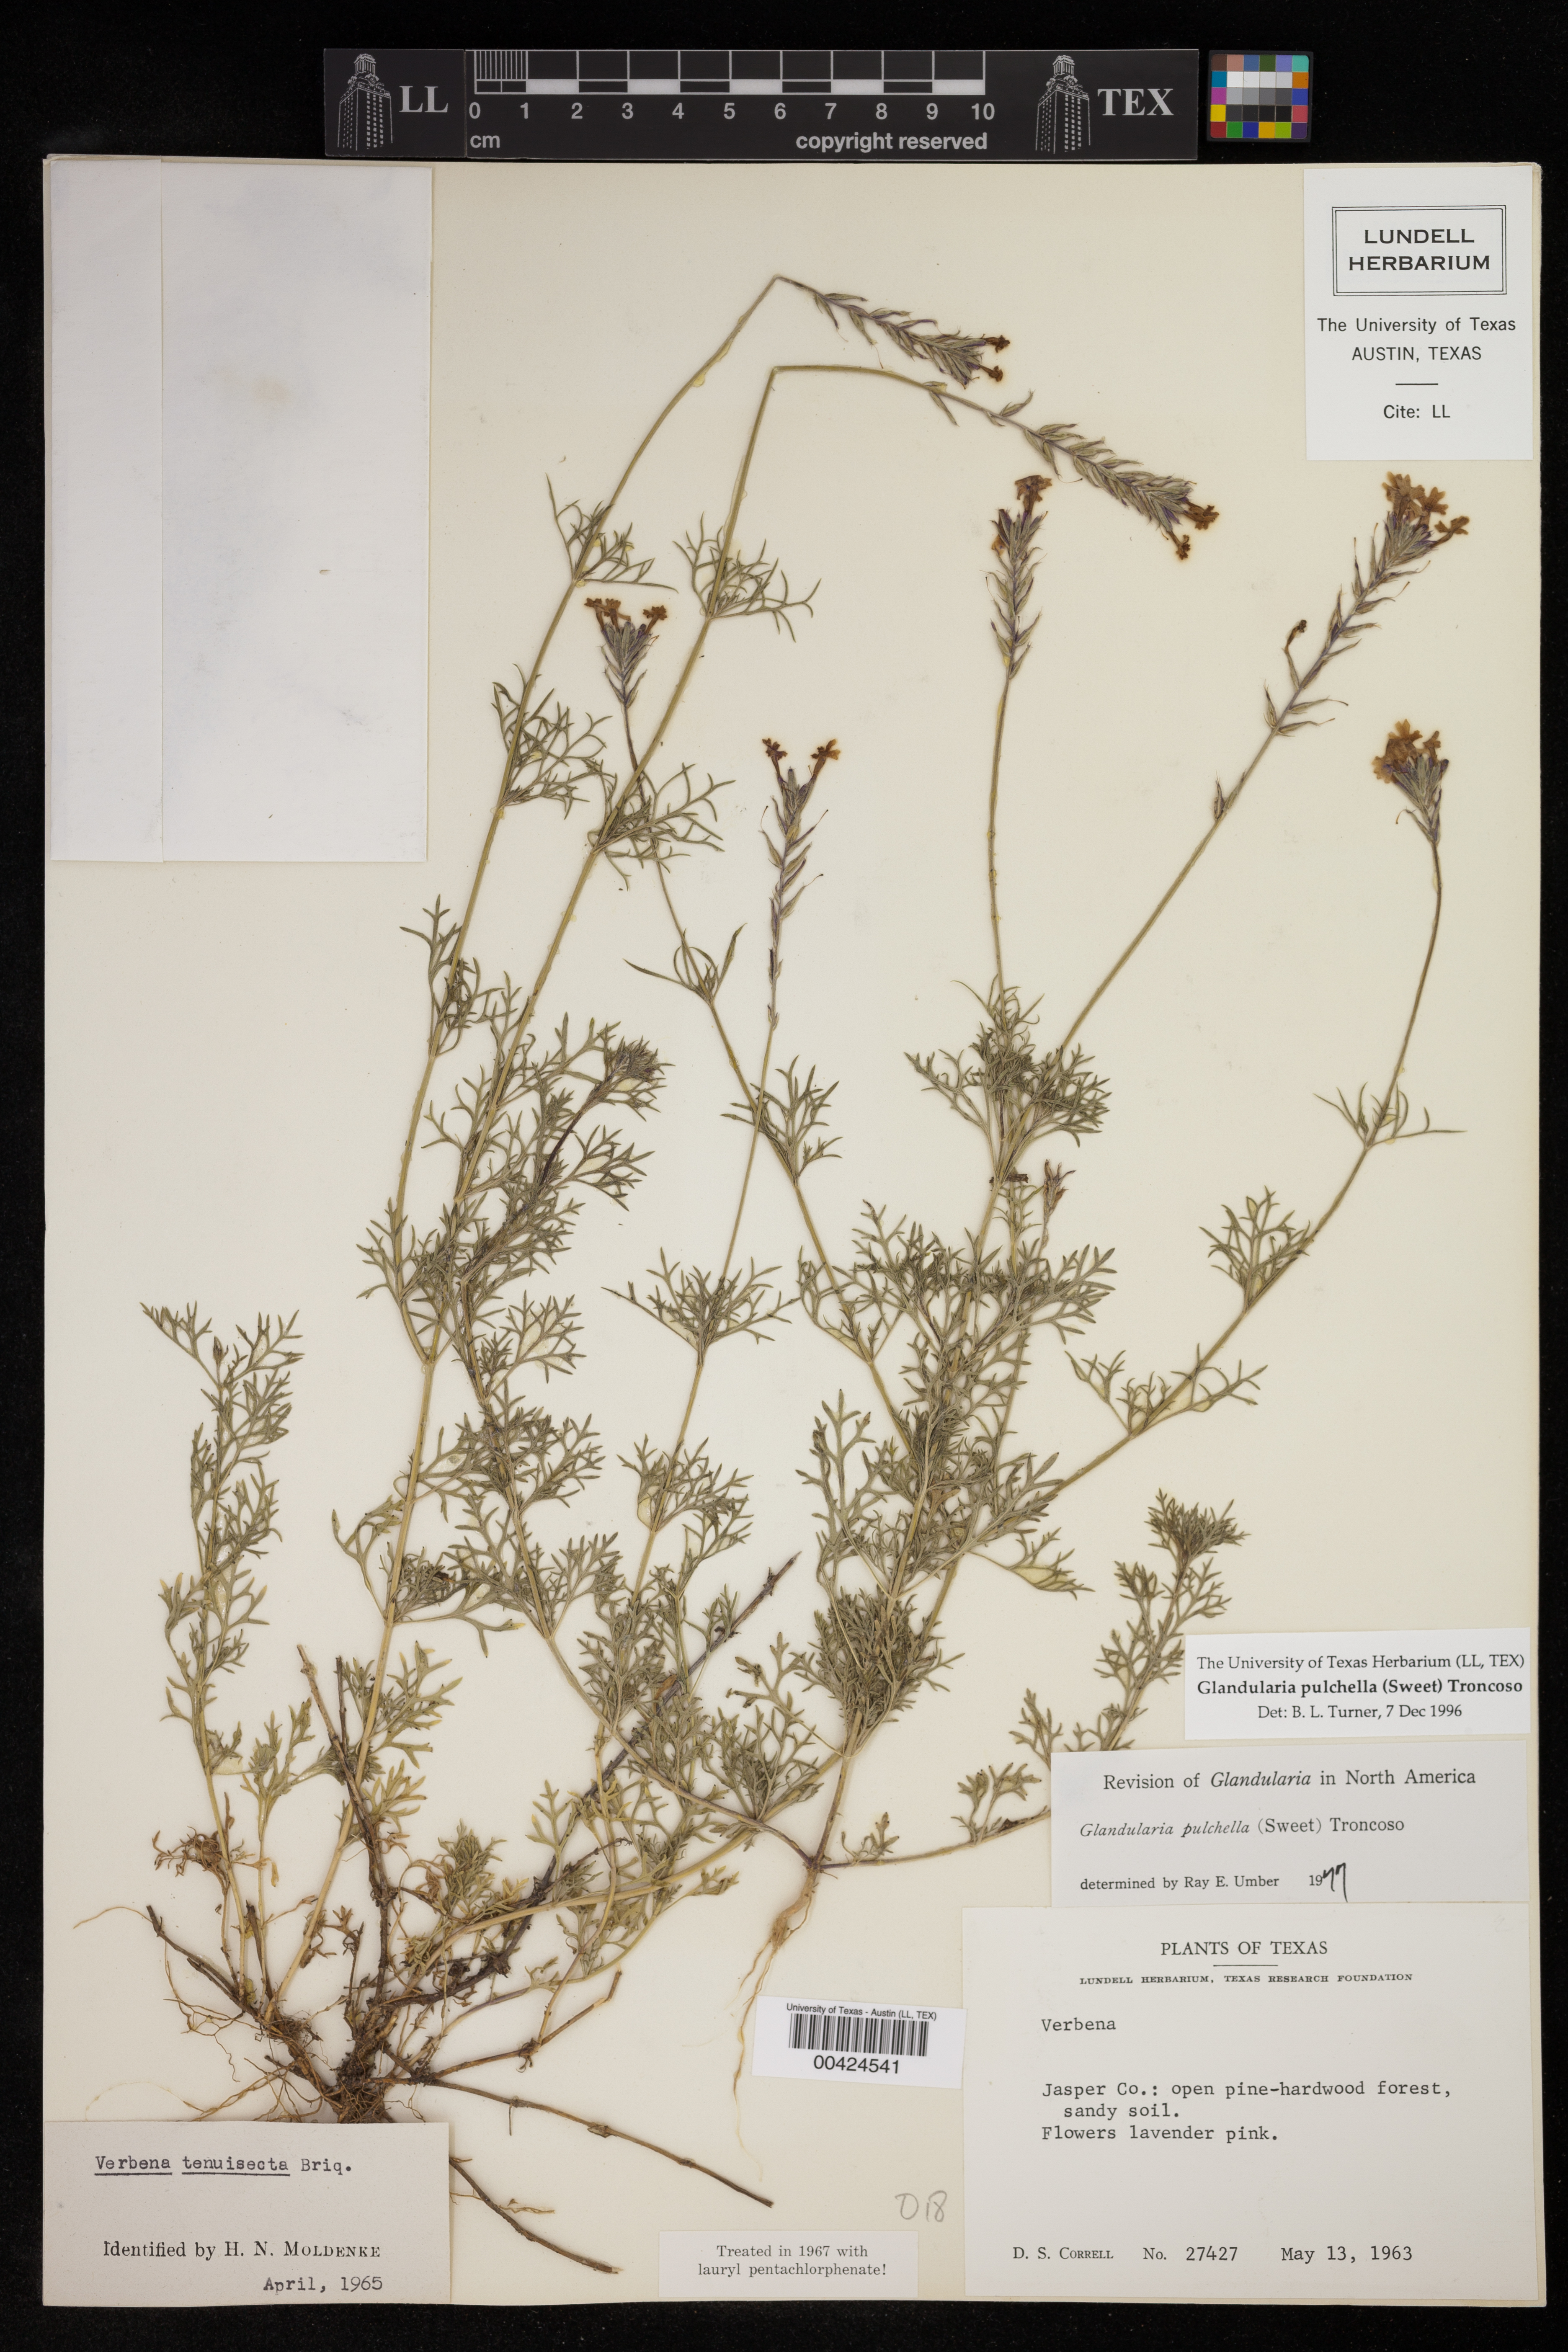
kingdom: Plantae
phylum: Tracheophyta
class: Magnoliopsida
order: Lamiales
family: Verbenaceae
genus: Verbena
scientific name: Verbena tenera
